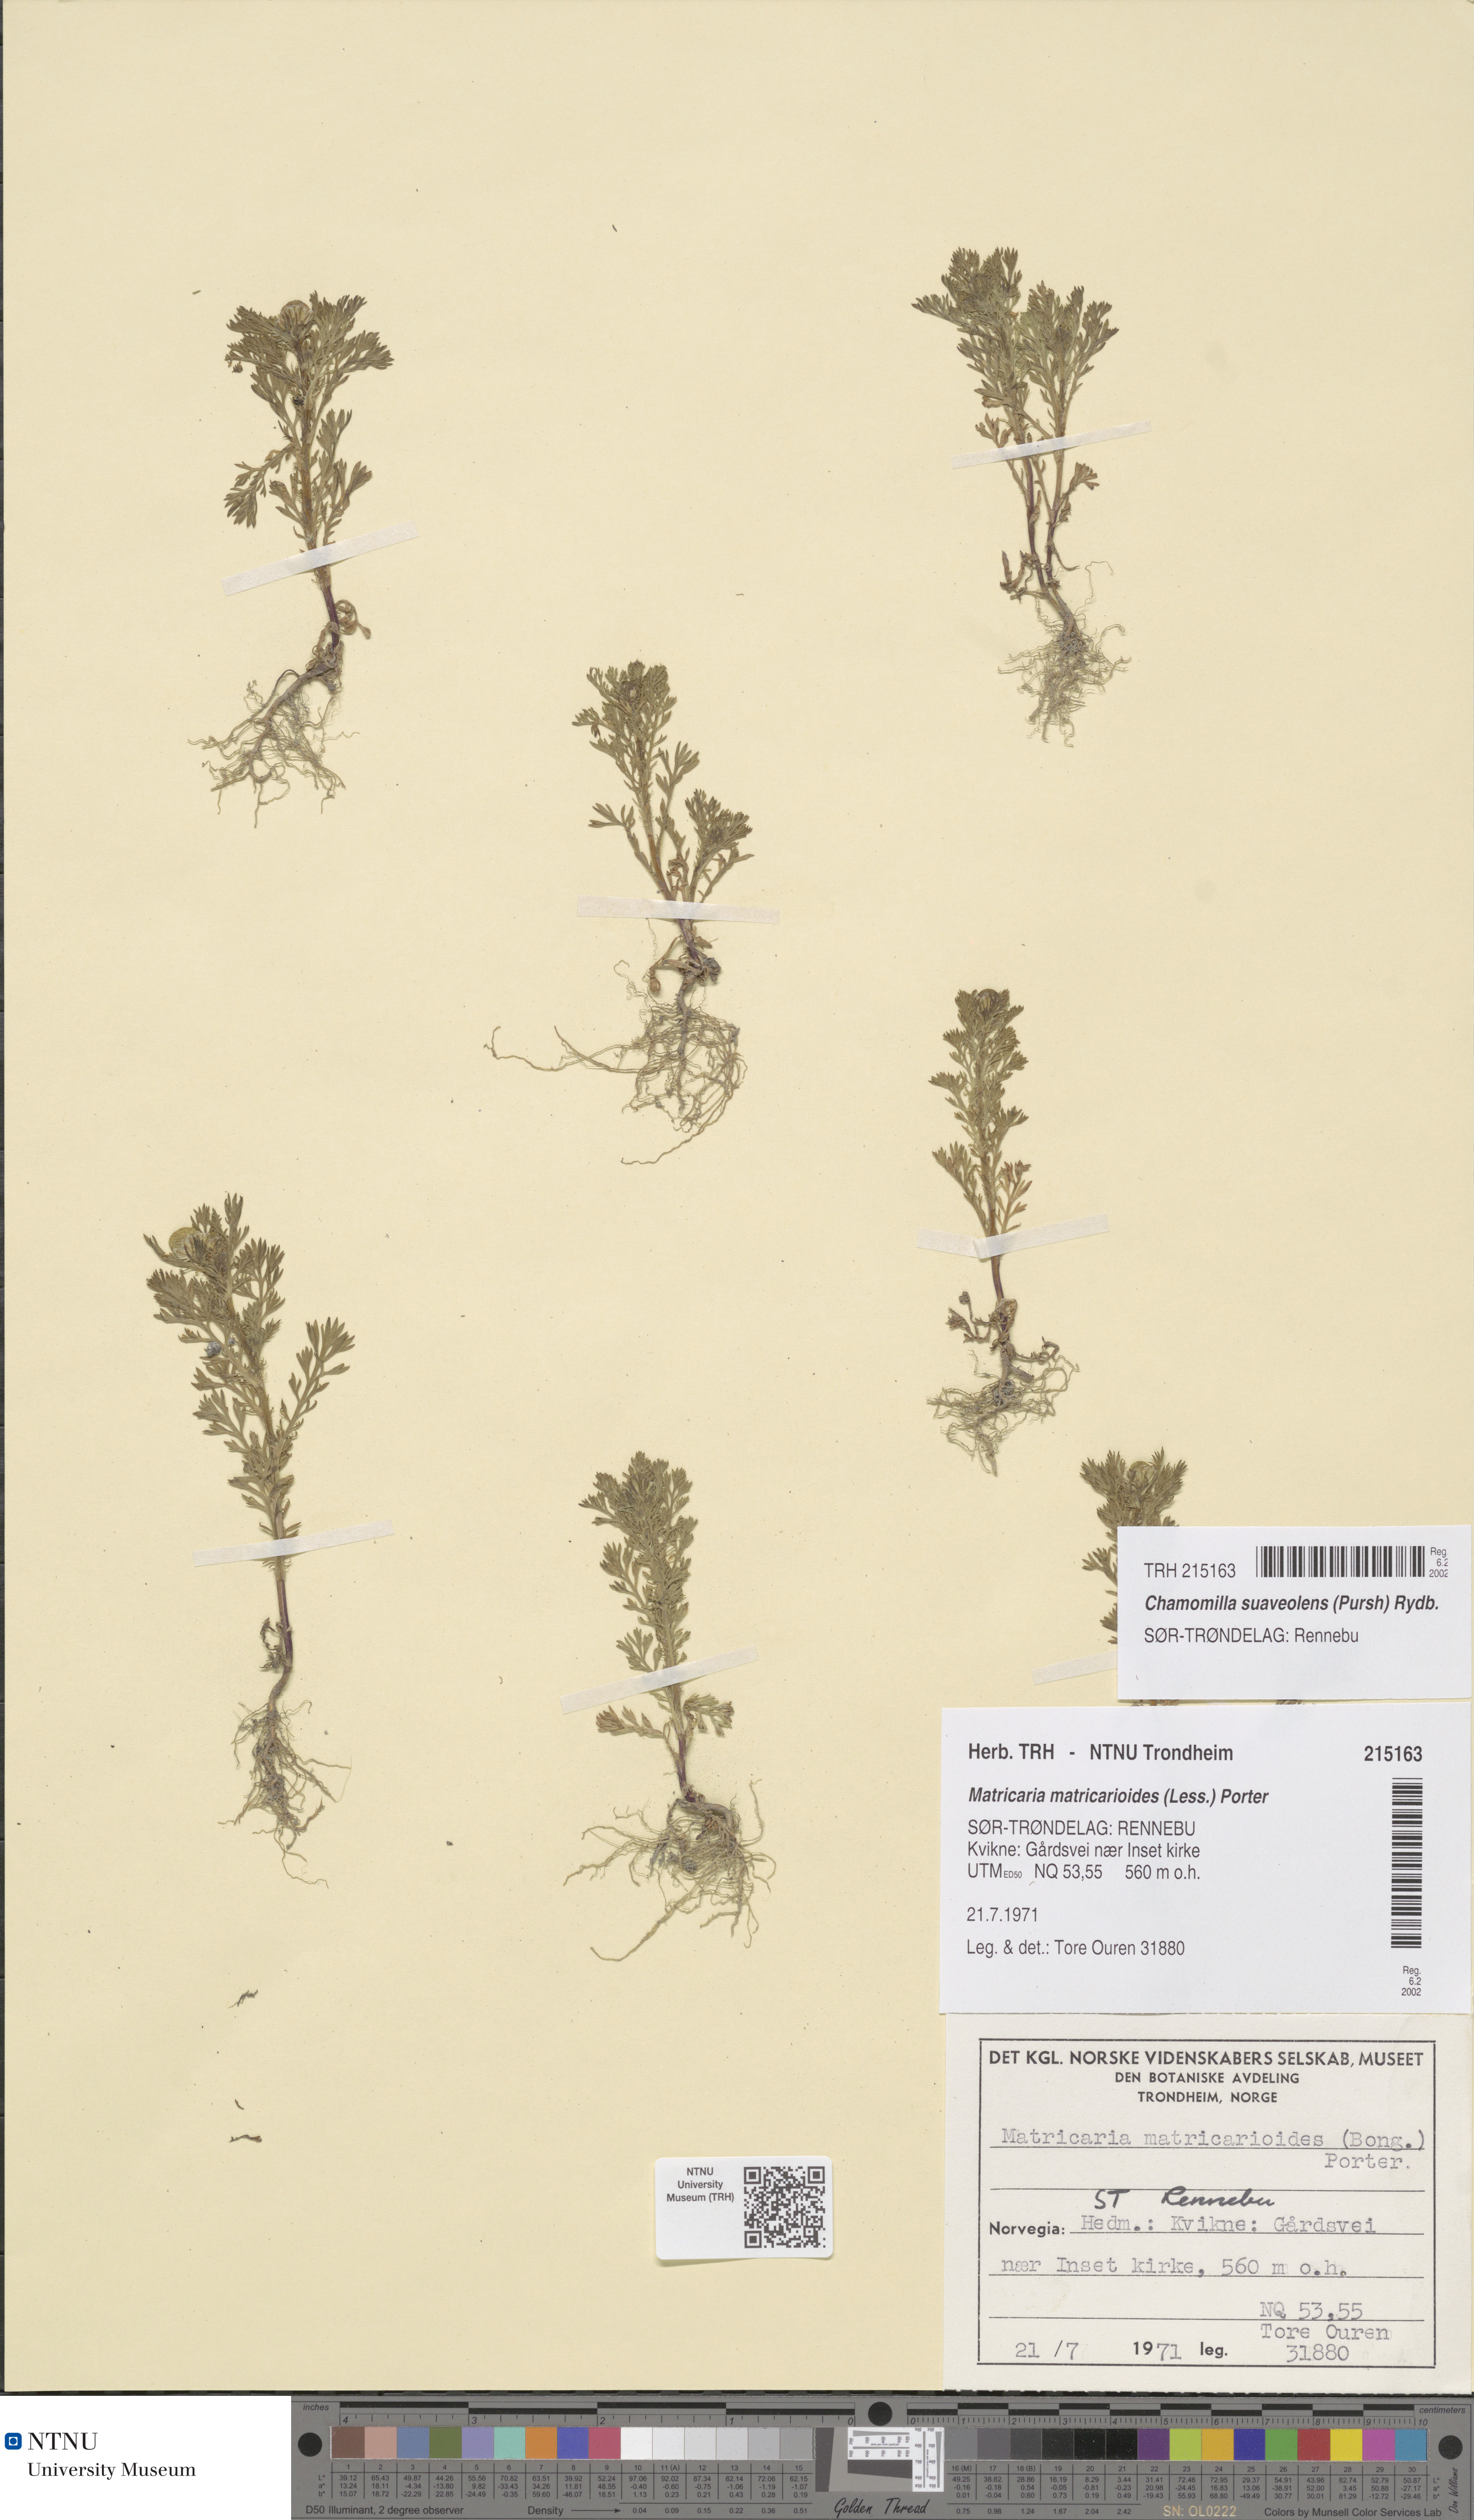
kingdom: Plantae
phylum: Tracheophyta
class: Magnoliopsida
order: Asterales
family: Asteraceae
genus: Matricaria
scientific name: Matricaria discoidea
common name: Disc mayweed
